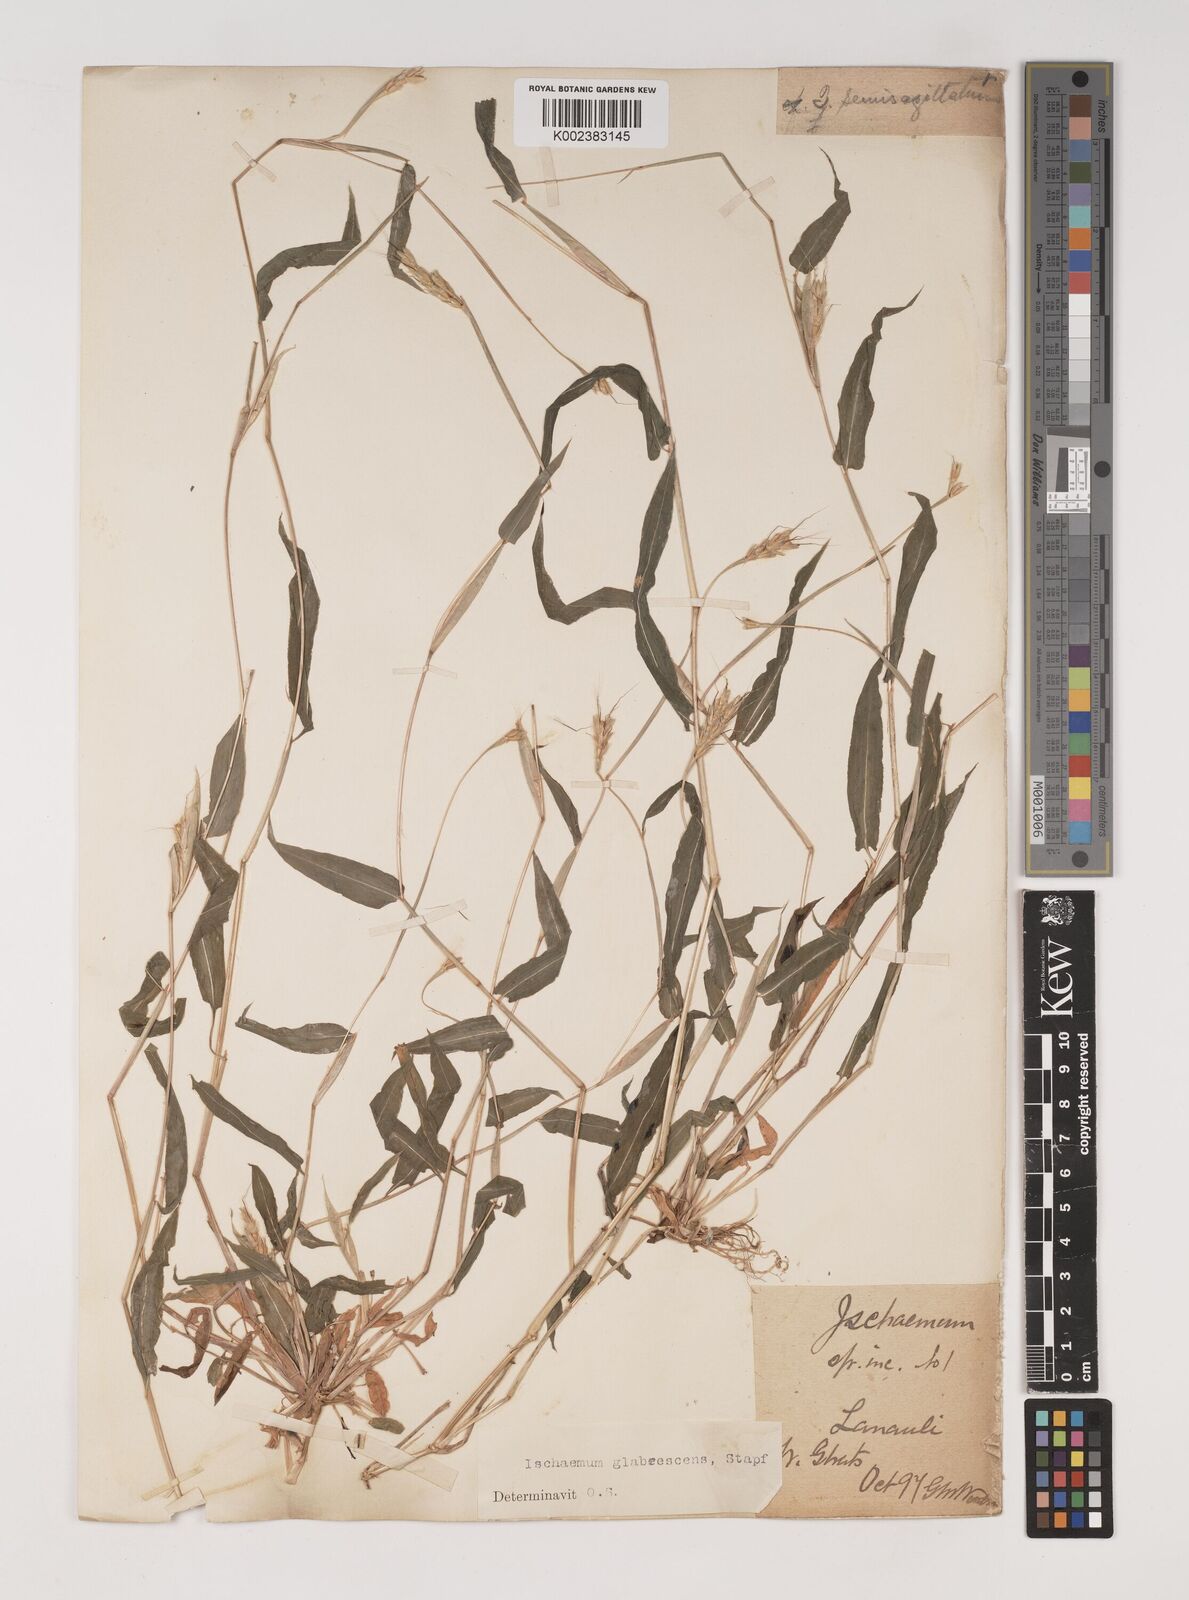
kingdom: Plantae
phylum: Tracheophyta
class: Liliopsida
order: Poales
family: Poaceae
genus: Ischaemum
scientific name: Ischaemum semisagittatum
